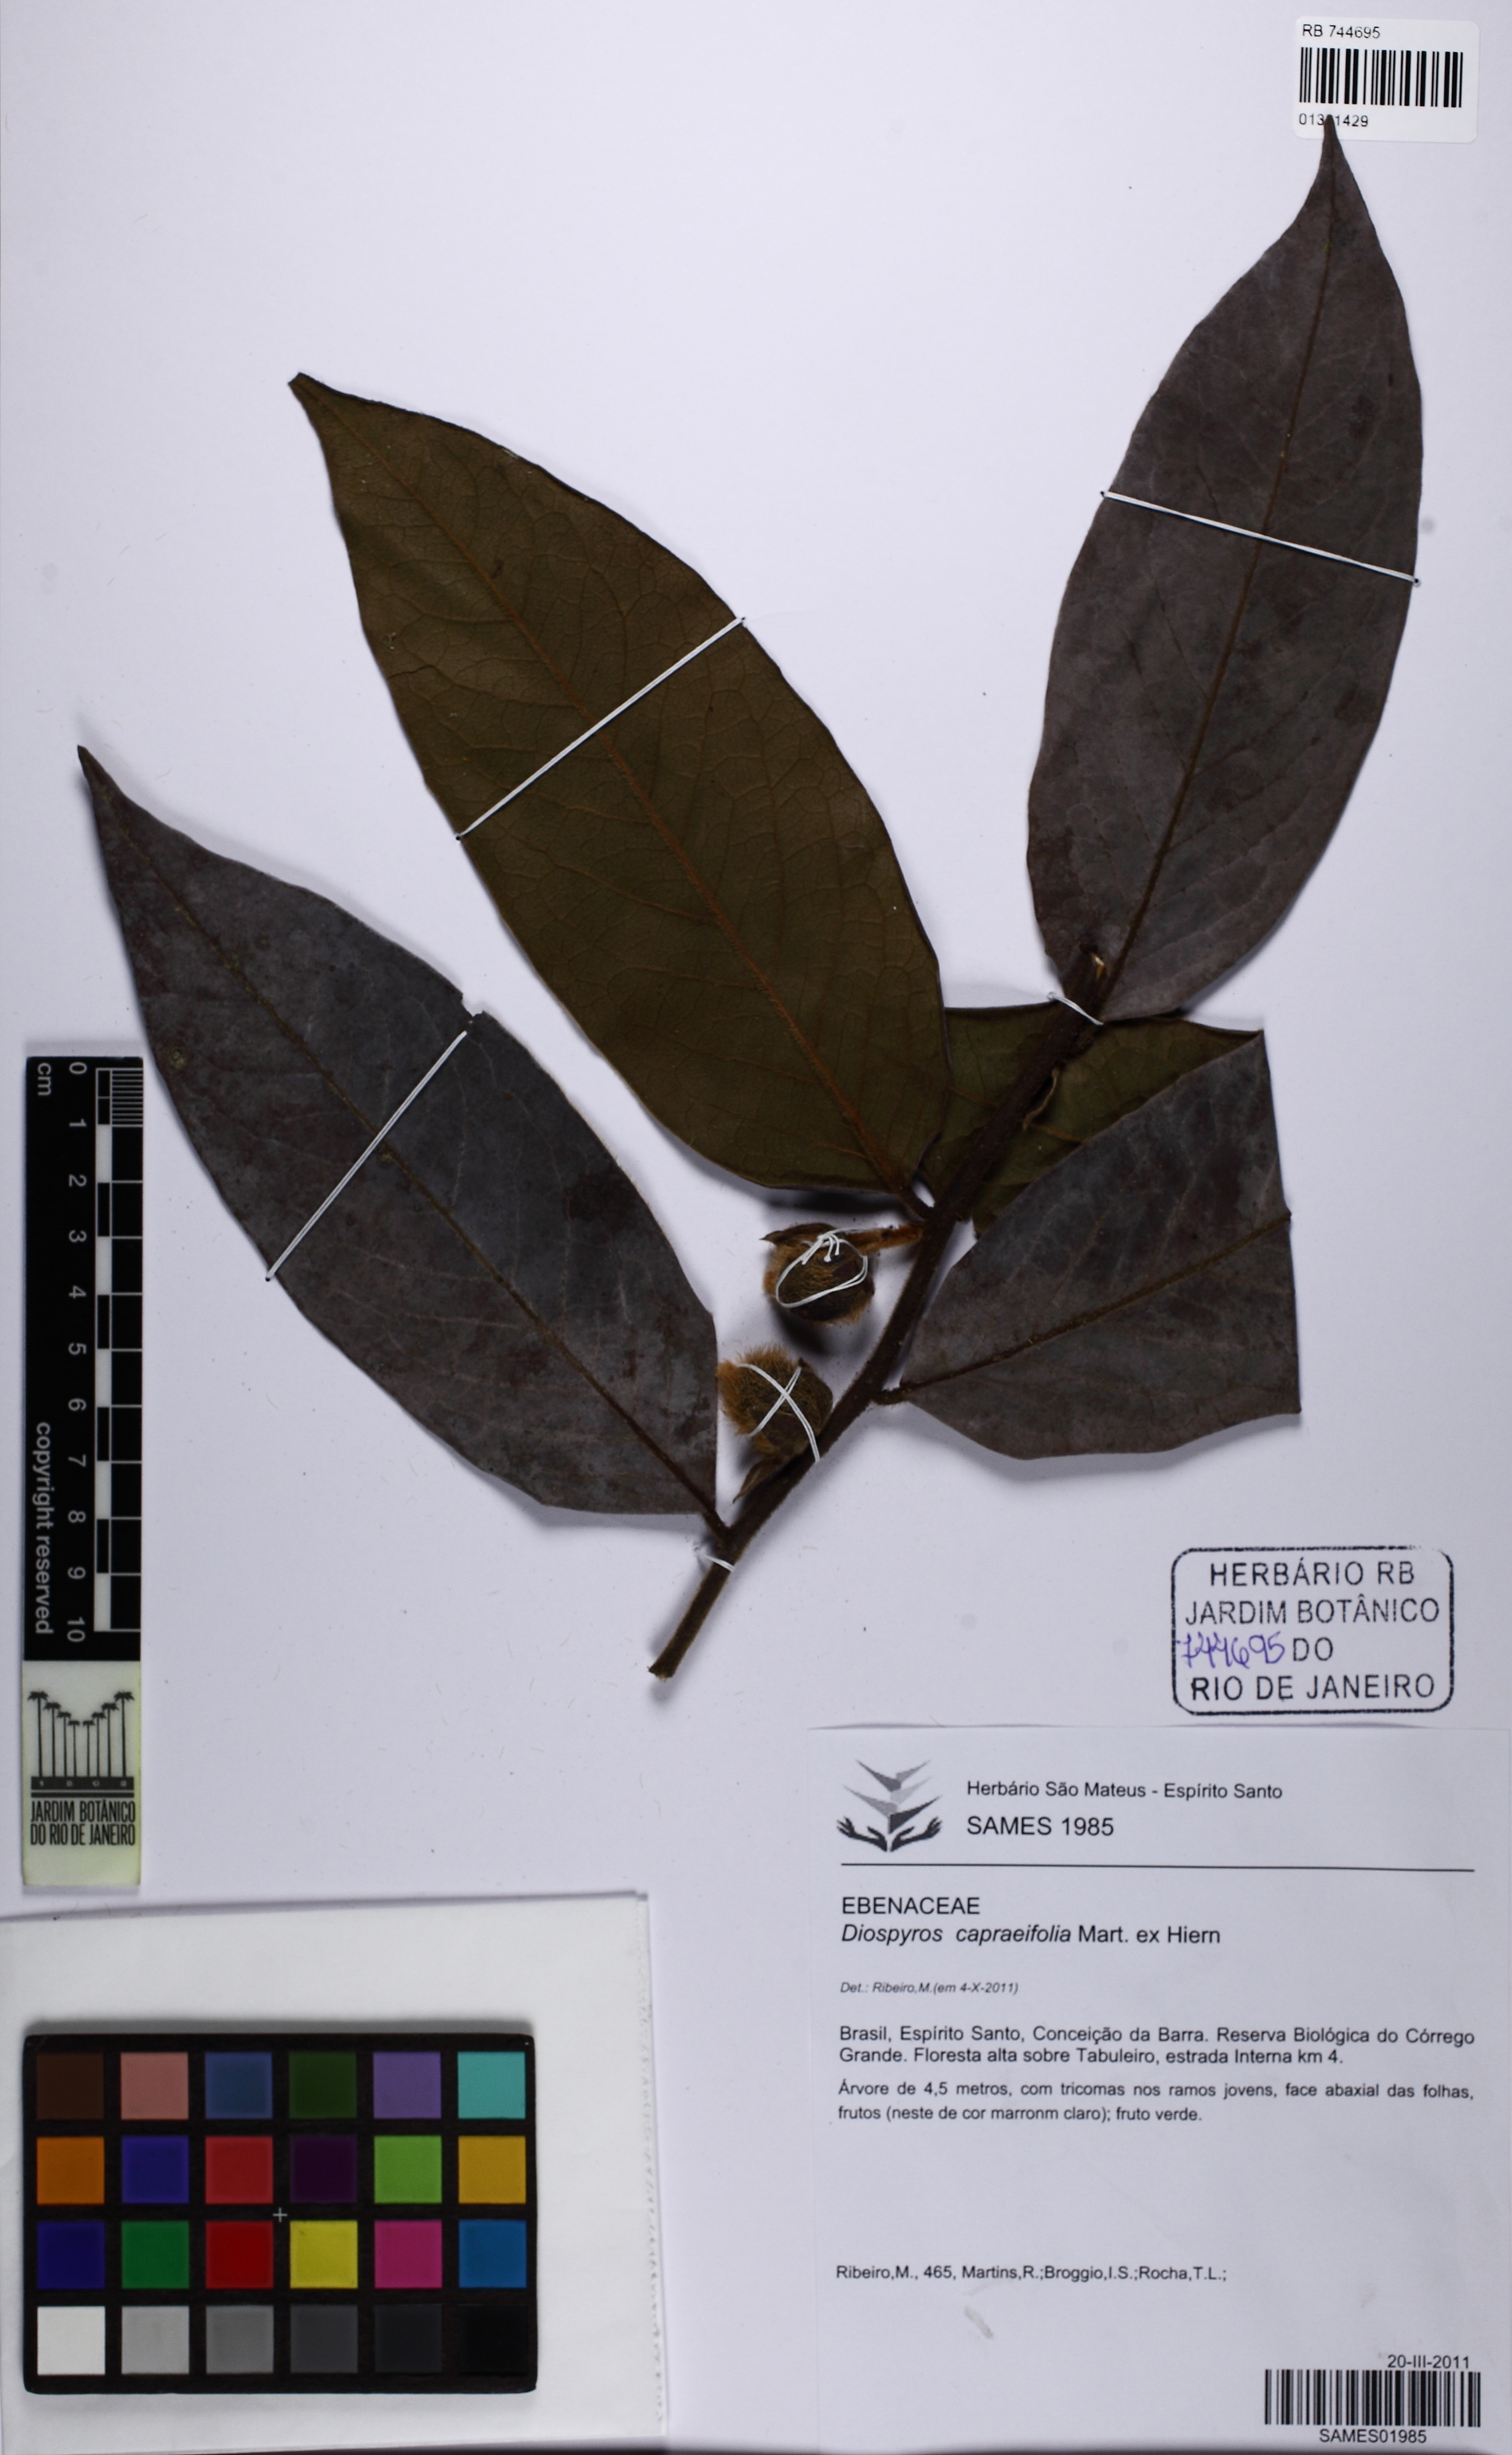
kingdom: Plantae
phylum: Tracheophyta
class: Magnoliopsida
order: Ericales
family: Ebenaceae
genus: Diospyros
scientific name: Diospyros capreifolia
